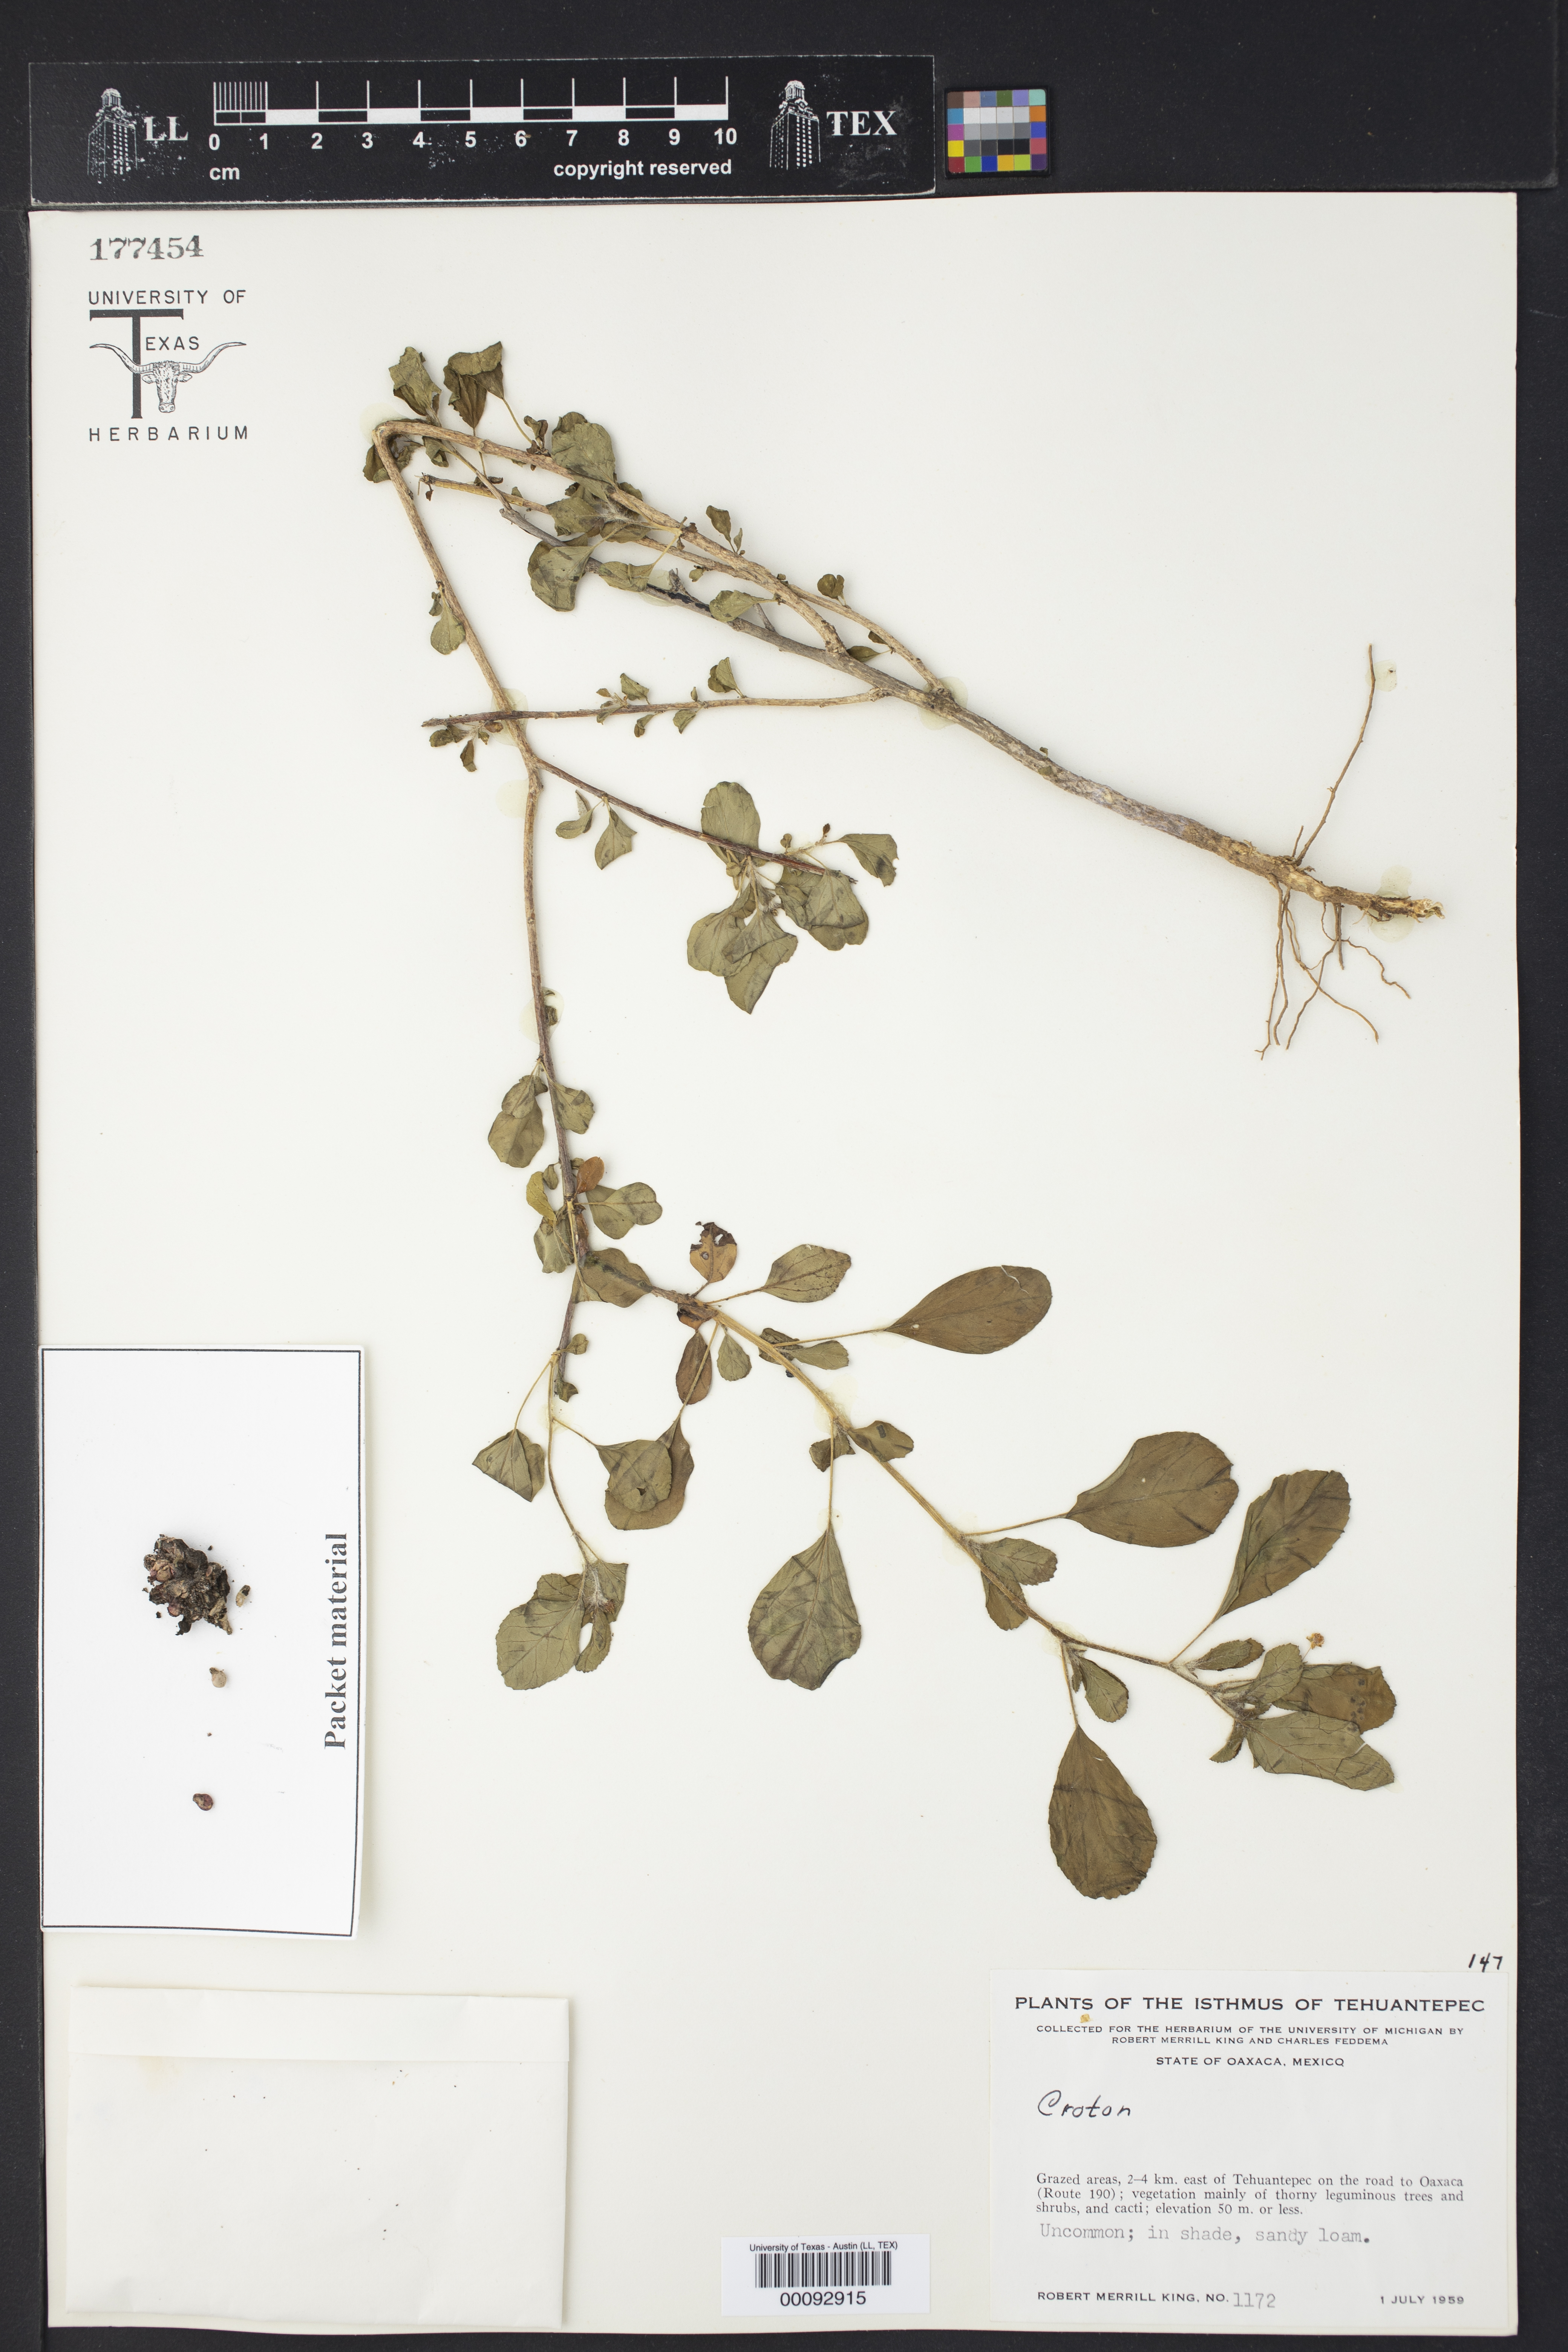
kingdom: Plantae
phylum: Tracheophyta
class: Magnoliopsida
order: Malpighiales
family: Euphorbiaceae
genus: Croton
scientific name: Croton ovalifolius
